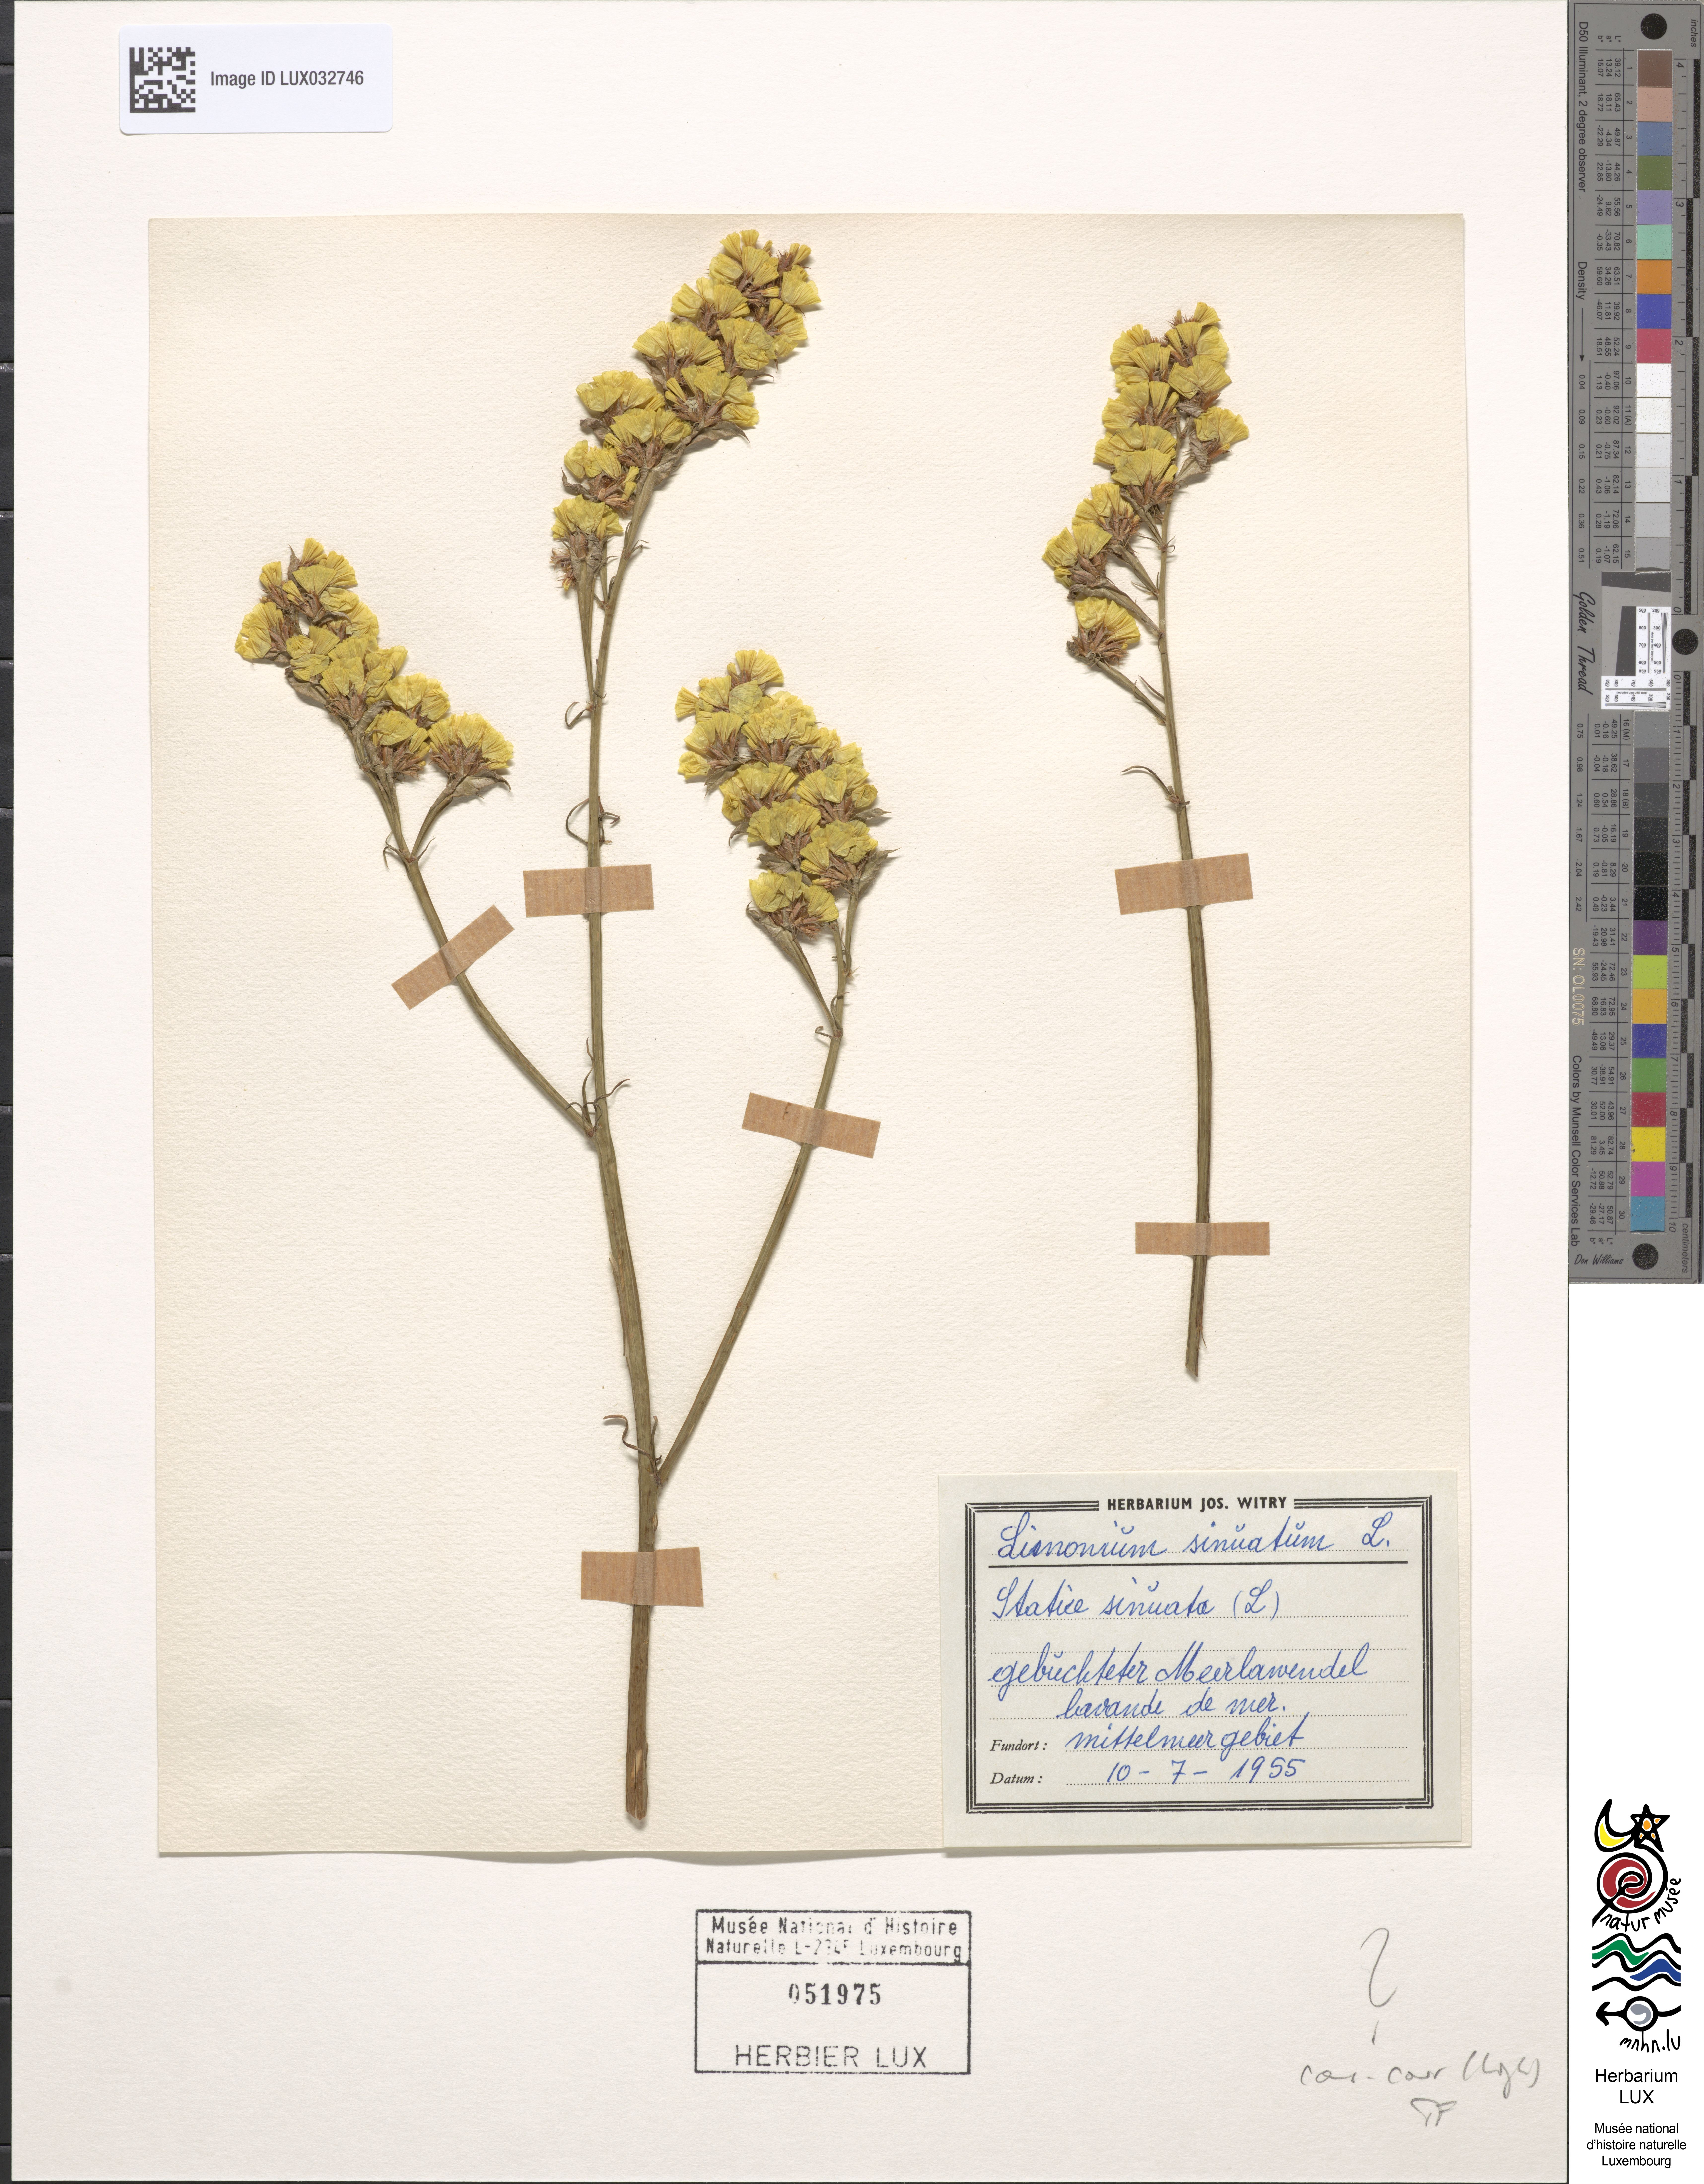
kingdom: Plantae
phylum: Tracheophyta
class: Magnoliopsida
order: Caryophyllales
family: Plumbaginaceae
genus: Limonium
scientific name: Limonium sinuatum
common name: Statice
